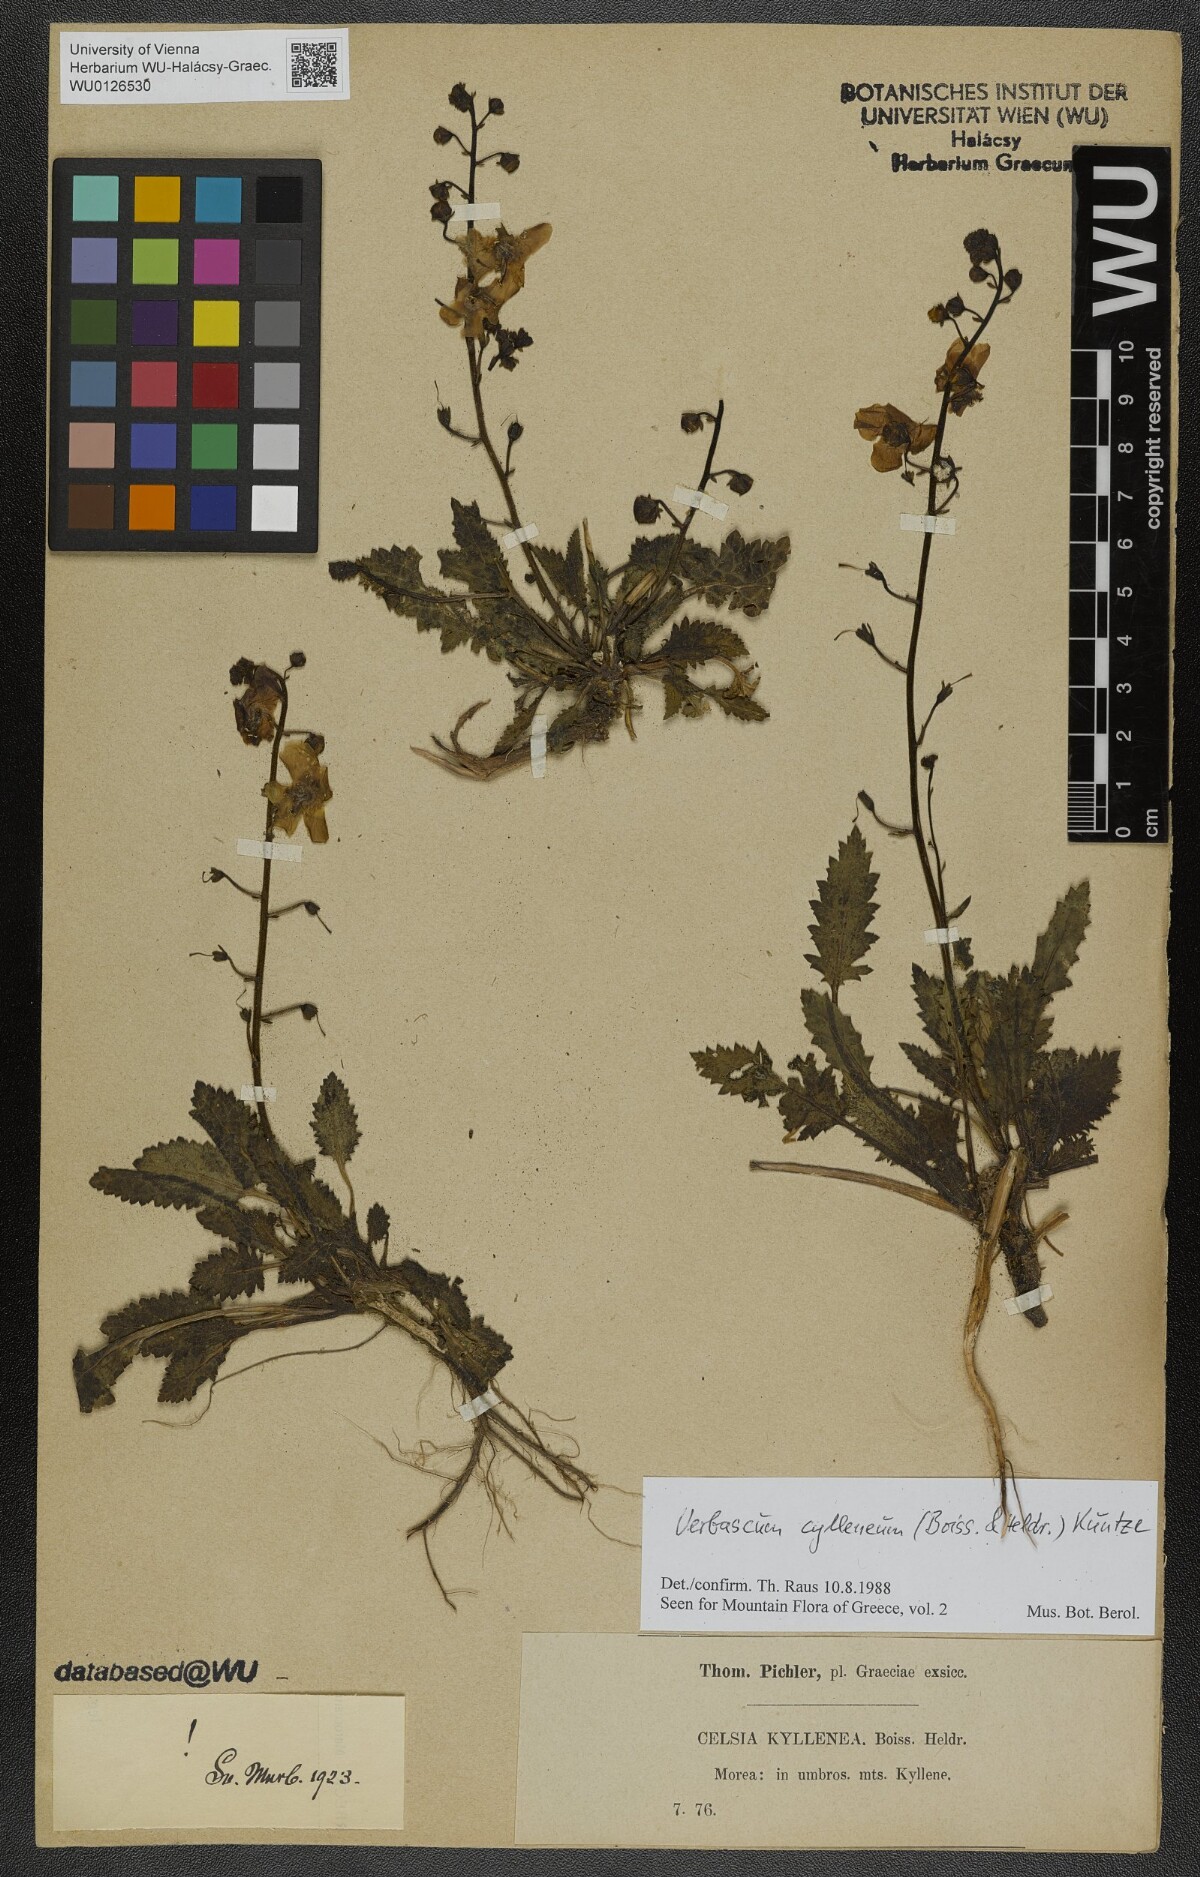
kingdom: Plantae
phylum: Tracheophyta
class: Magnoliopsida
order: Lamiales
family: Scrophulariaceae
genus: Verbascum
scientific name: Verbascum cylleneum
